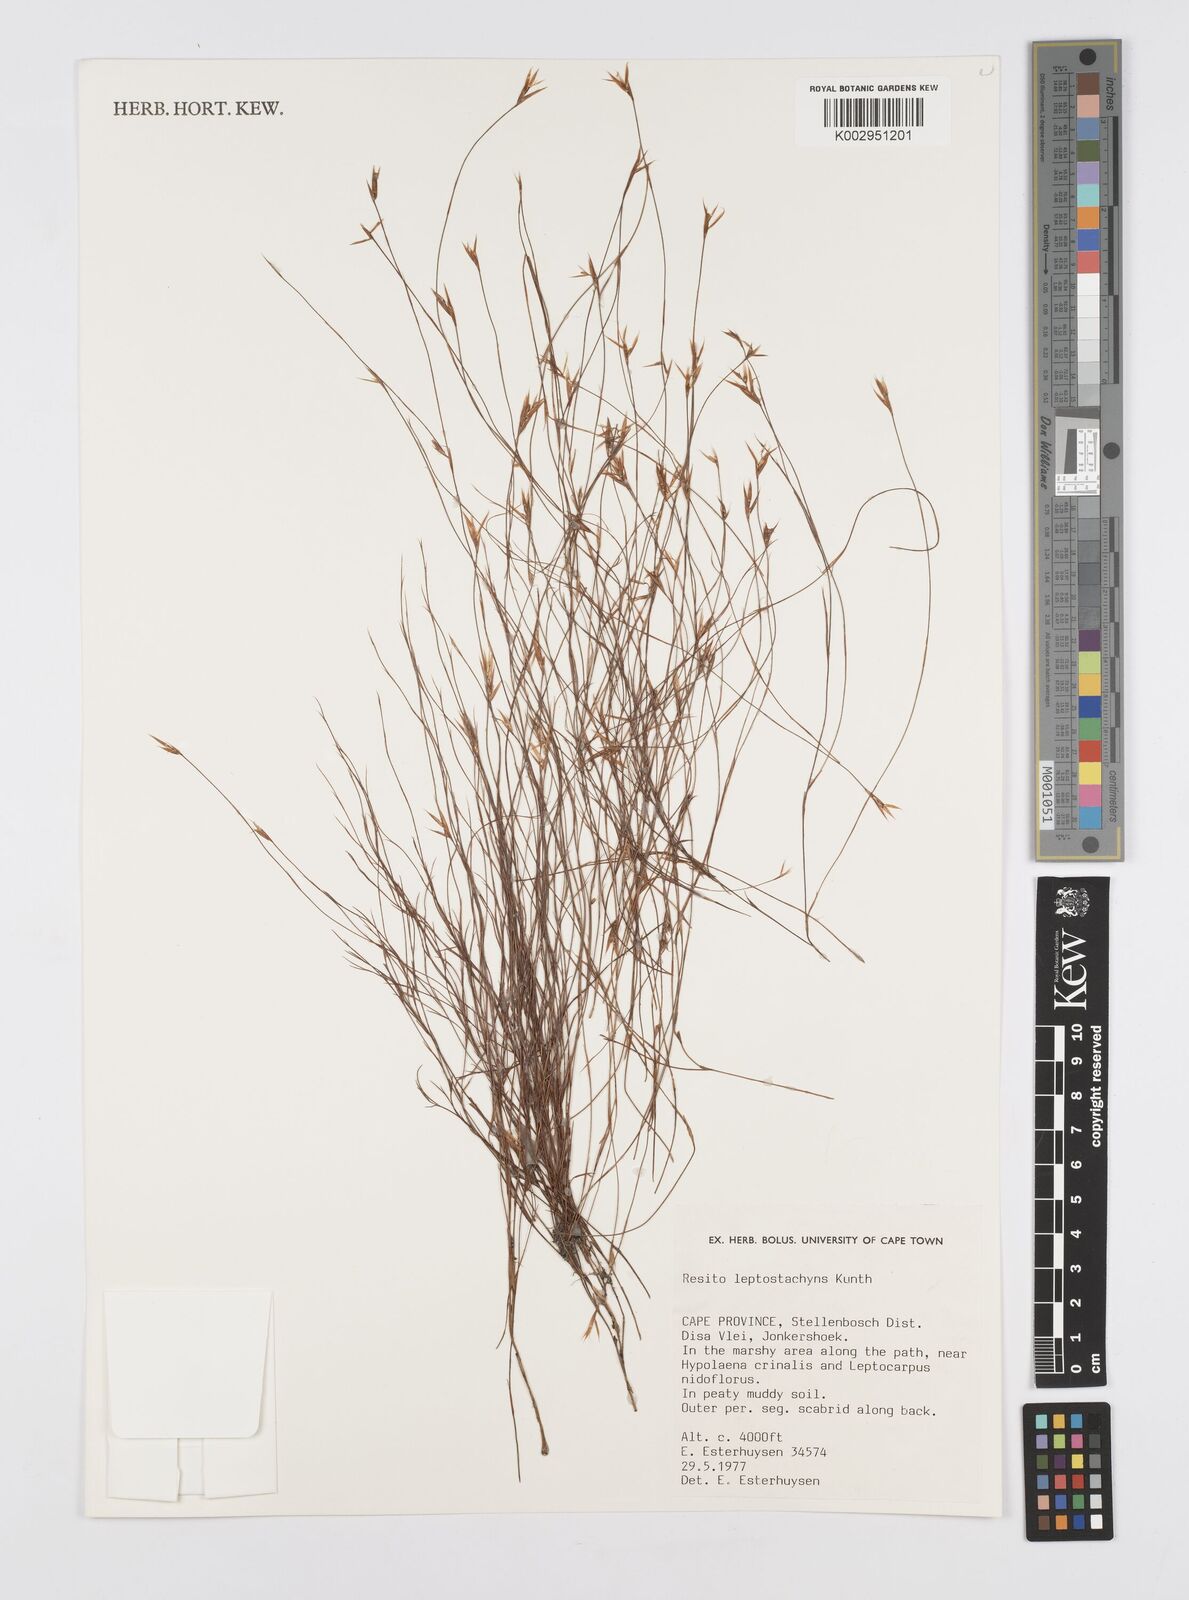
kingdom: Plantae
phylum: Tracheophyta
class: Liliopsida
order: Poales
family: Restionaceae
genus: Restio
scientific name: Restio leptostachyus
